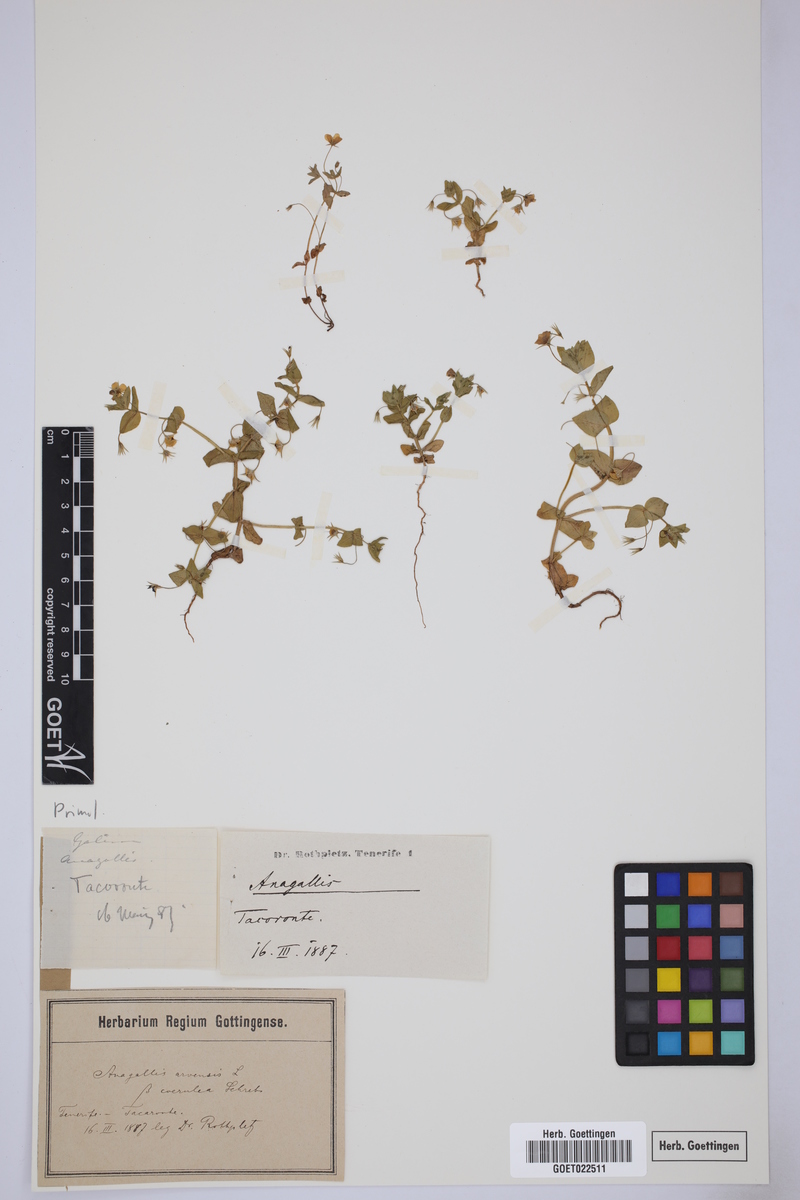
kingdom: Plantae
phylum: Tracheophyta
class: Magnoliopsida
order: Ericales
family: Primulaceae
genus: Lysimachia
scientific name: Lysimachia arvensis
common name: Scarlet pimpernel
